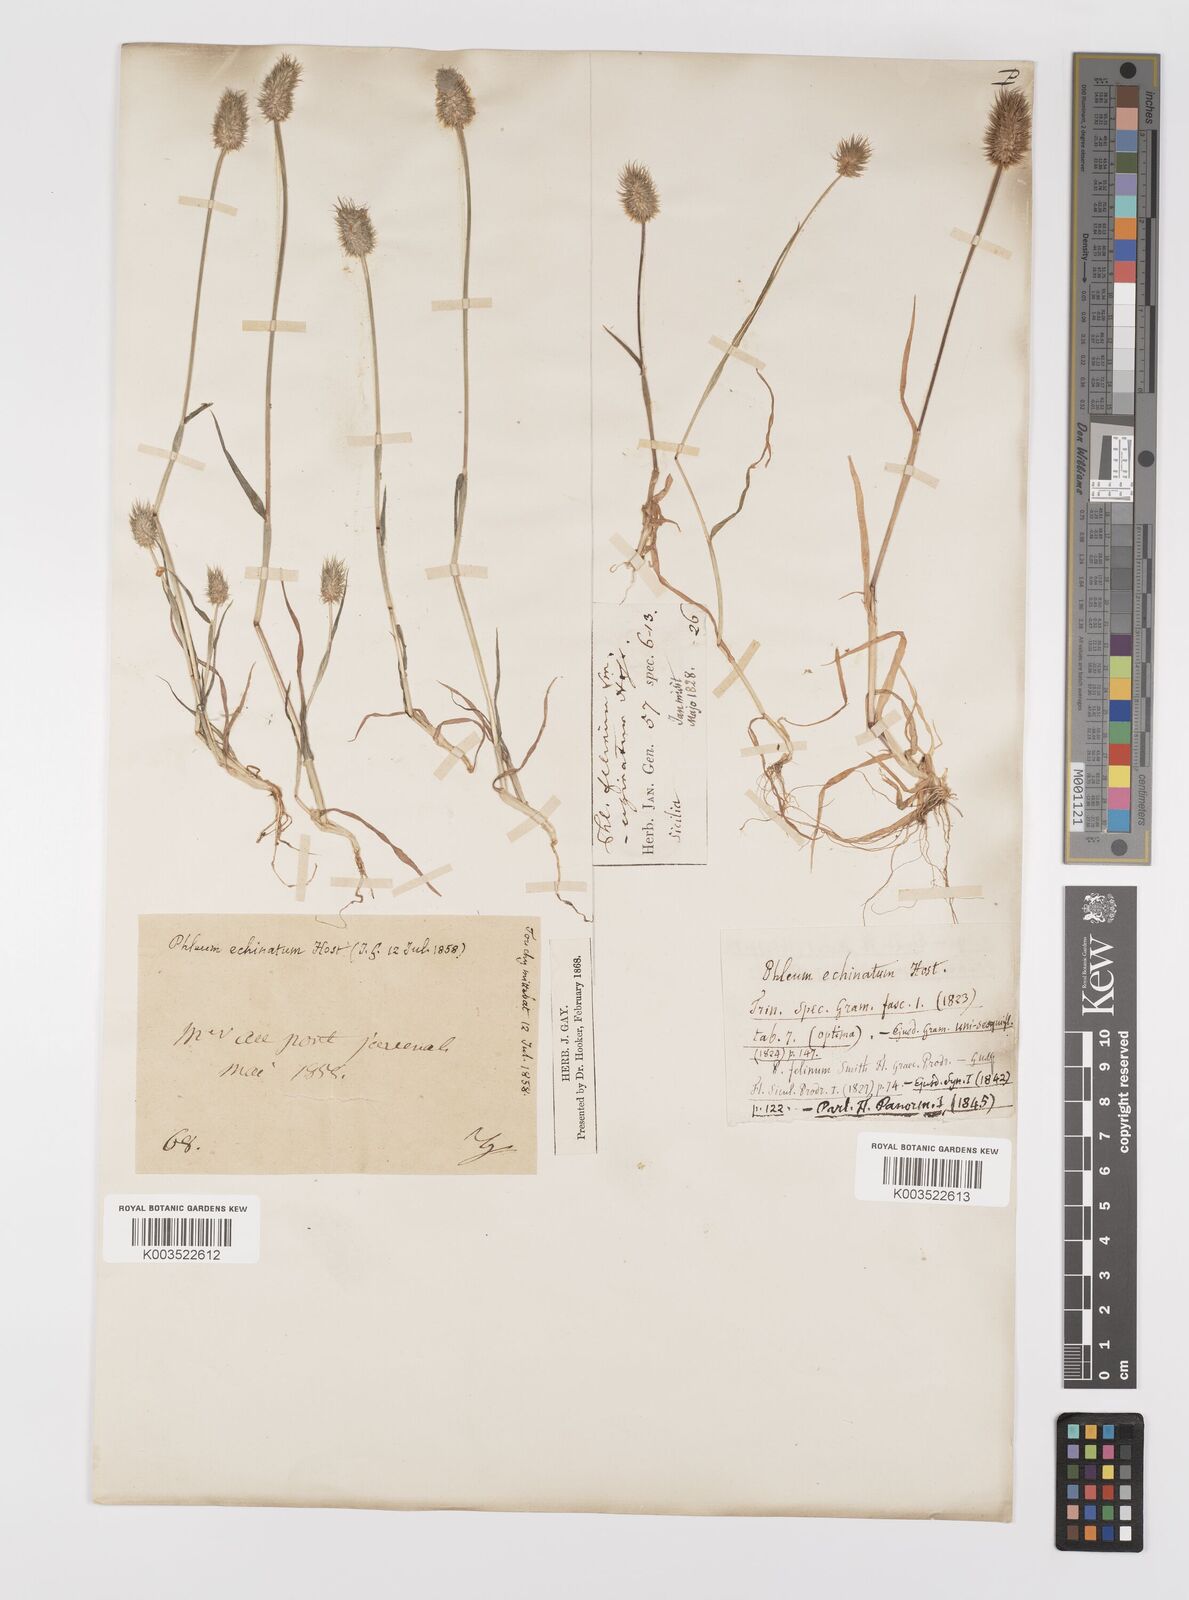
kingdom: Plantae
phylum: Tracheophyta
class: Liliopsida
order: Poales
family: Poaceae
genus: Phleum
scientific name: Phleum echinatum
